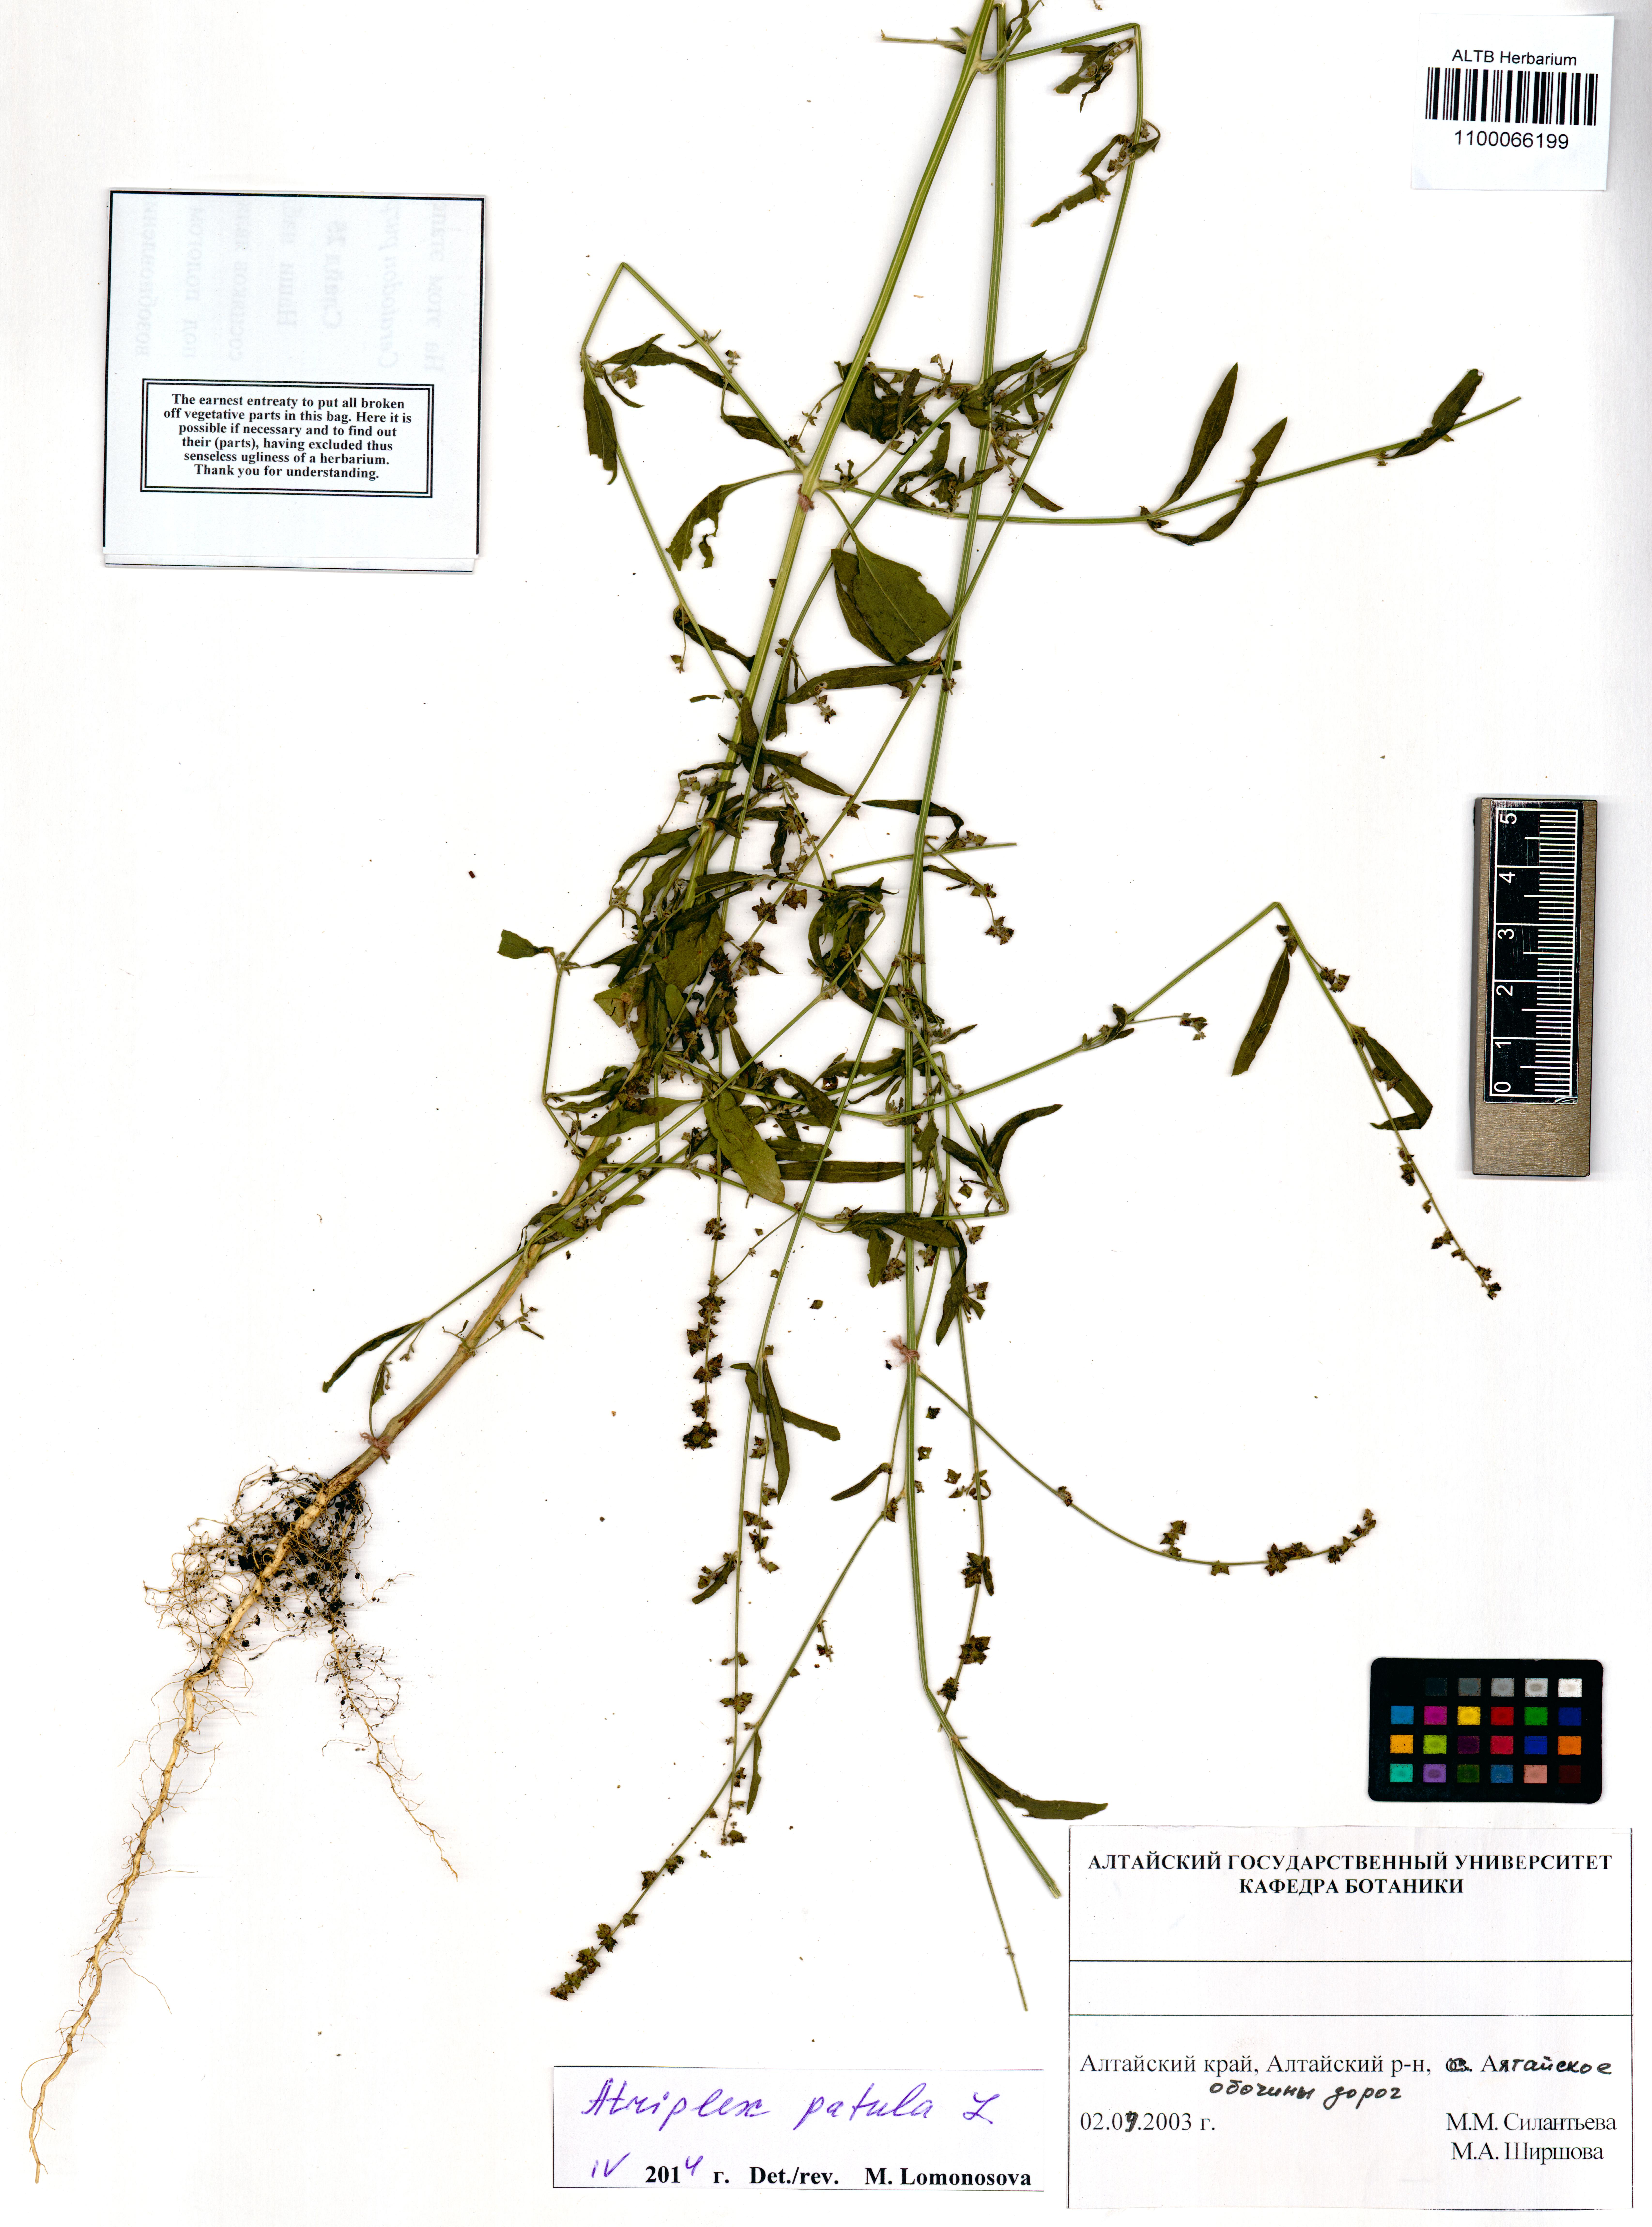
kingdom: Plantae
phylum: Tracheophyta
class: Magnoliopsida
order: Caryophyllales
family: Amaranthaceae
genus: Atriplex
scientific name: Atriplex patula
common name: Common orache
